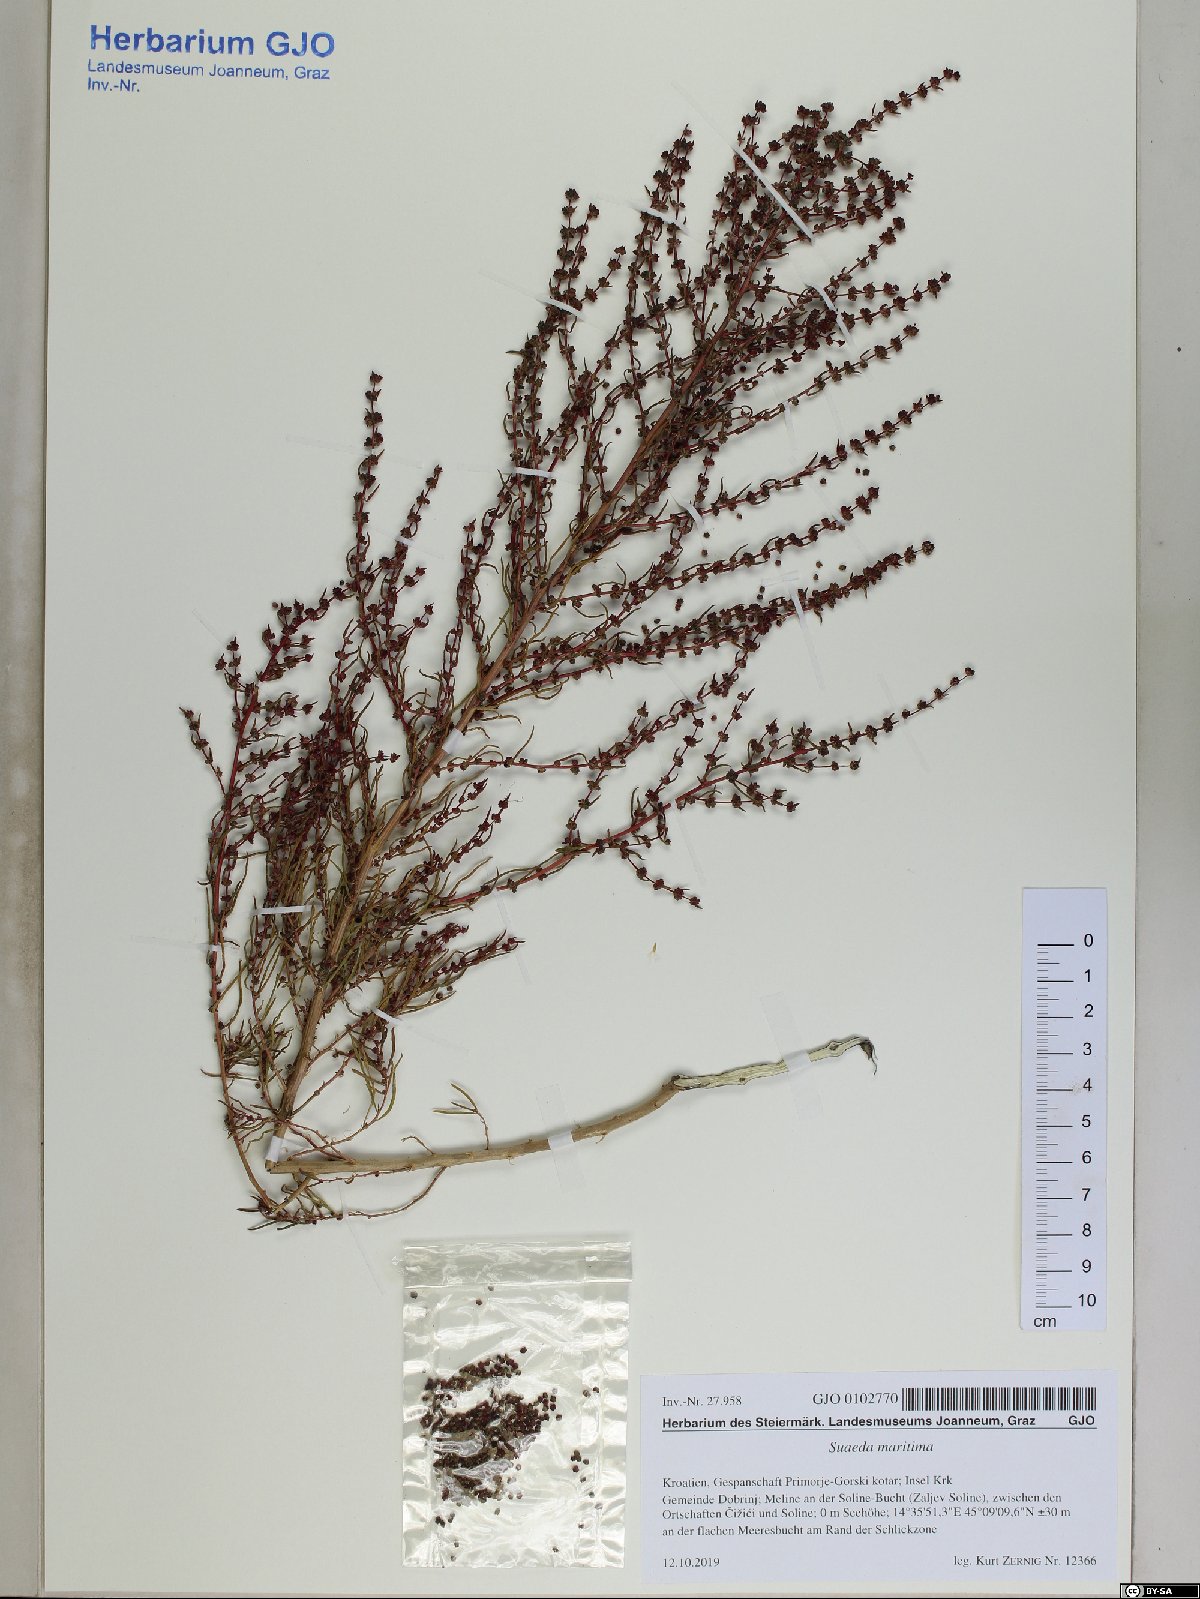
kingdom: Plantae
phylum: Tracheophyta
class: Magnoliopsida
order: Caryophyllales
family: Amaranthaceae
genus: Suaeda
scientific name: Suaeda maritima
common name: Annual sea-blite
